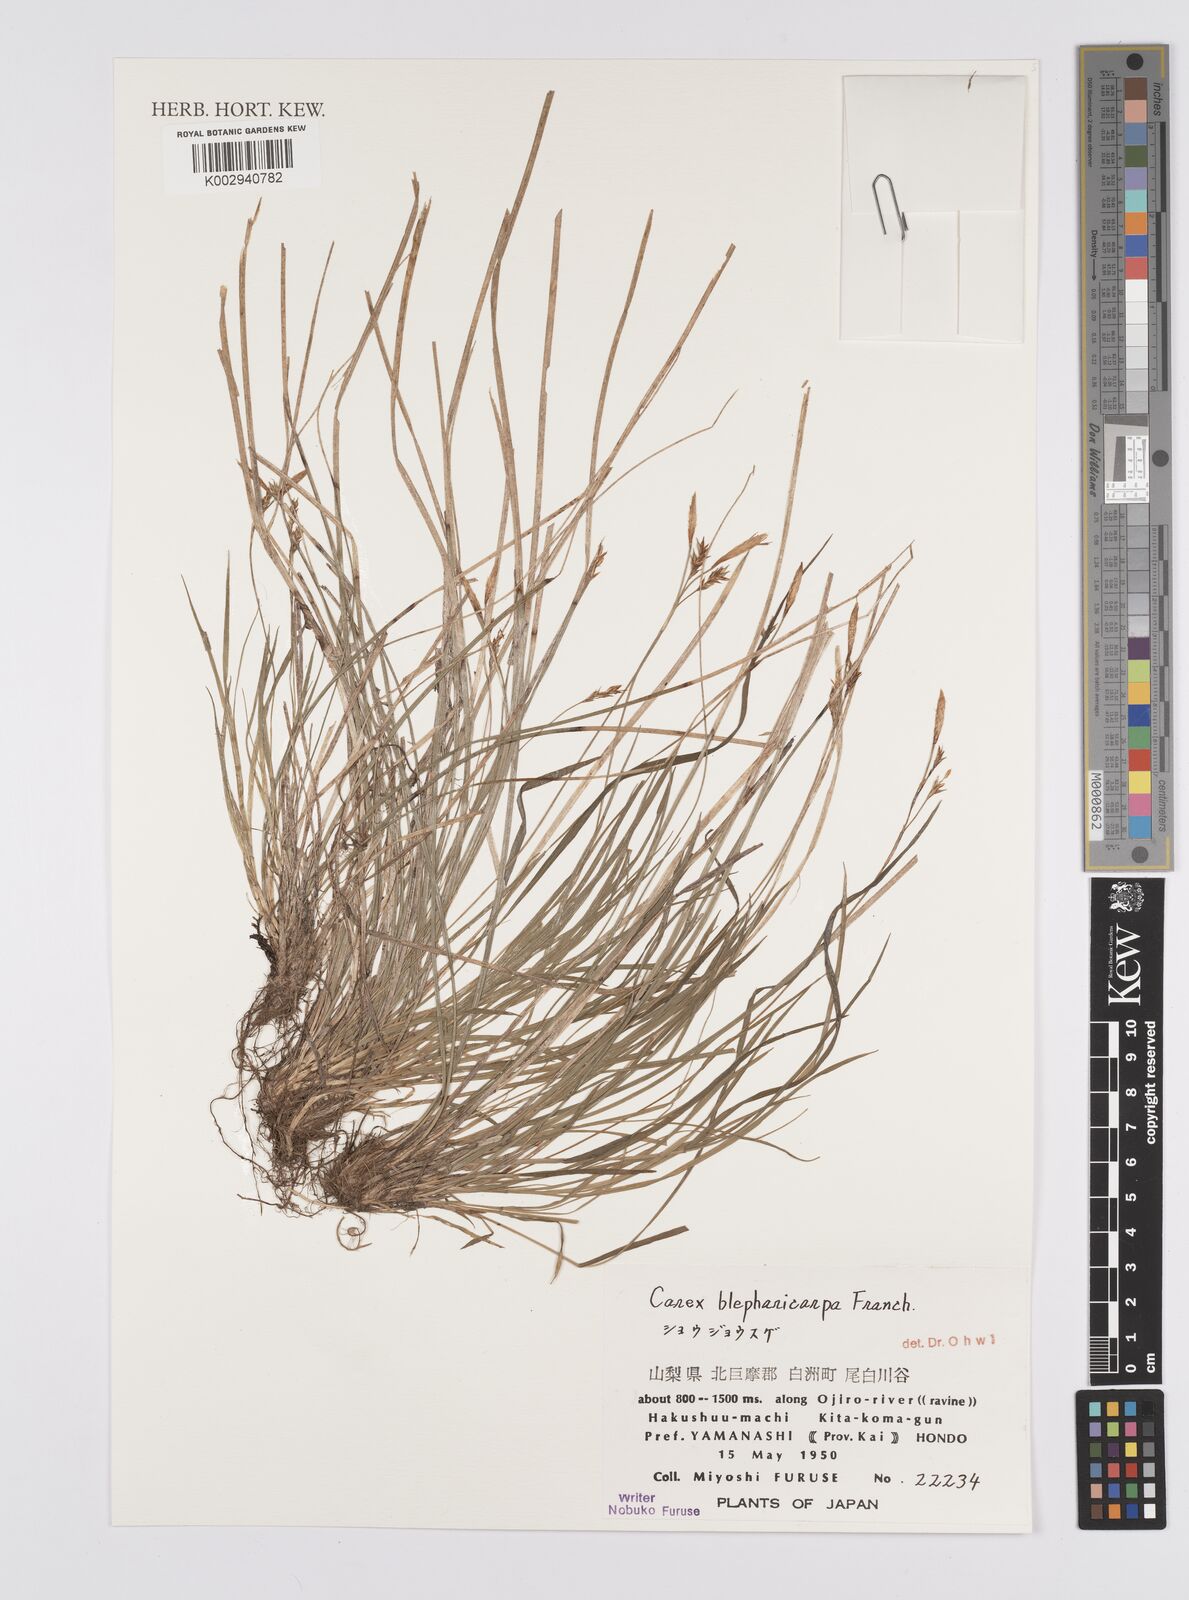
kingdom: Plantae
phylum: Tracheophyta
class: Liliopsida
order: Poales
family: Cyperaceae
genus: Carex
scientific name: Carex blepharicarpa
